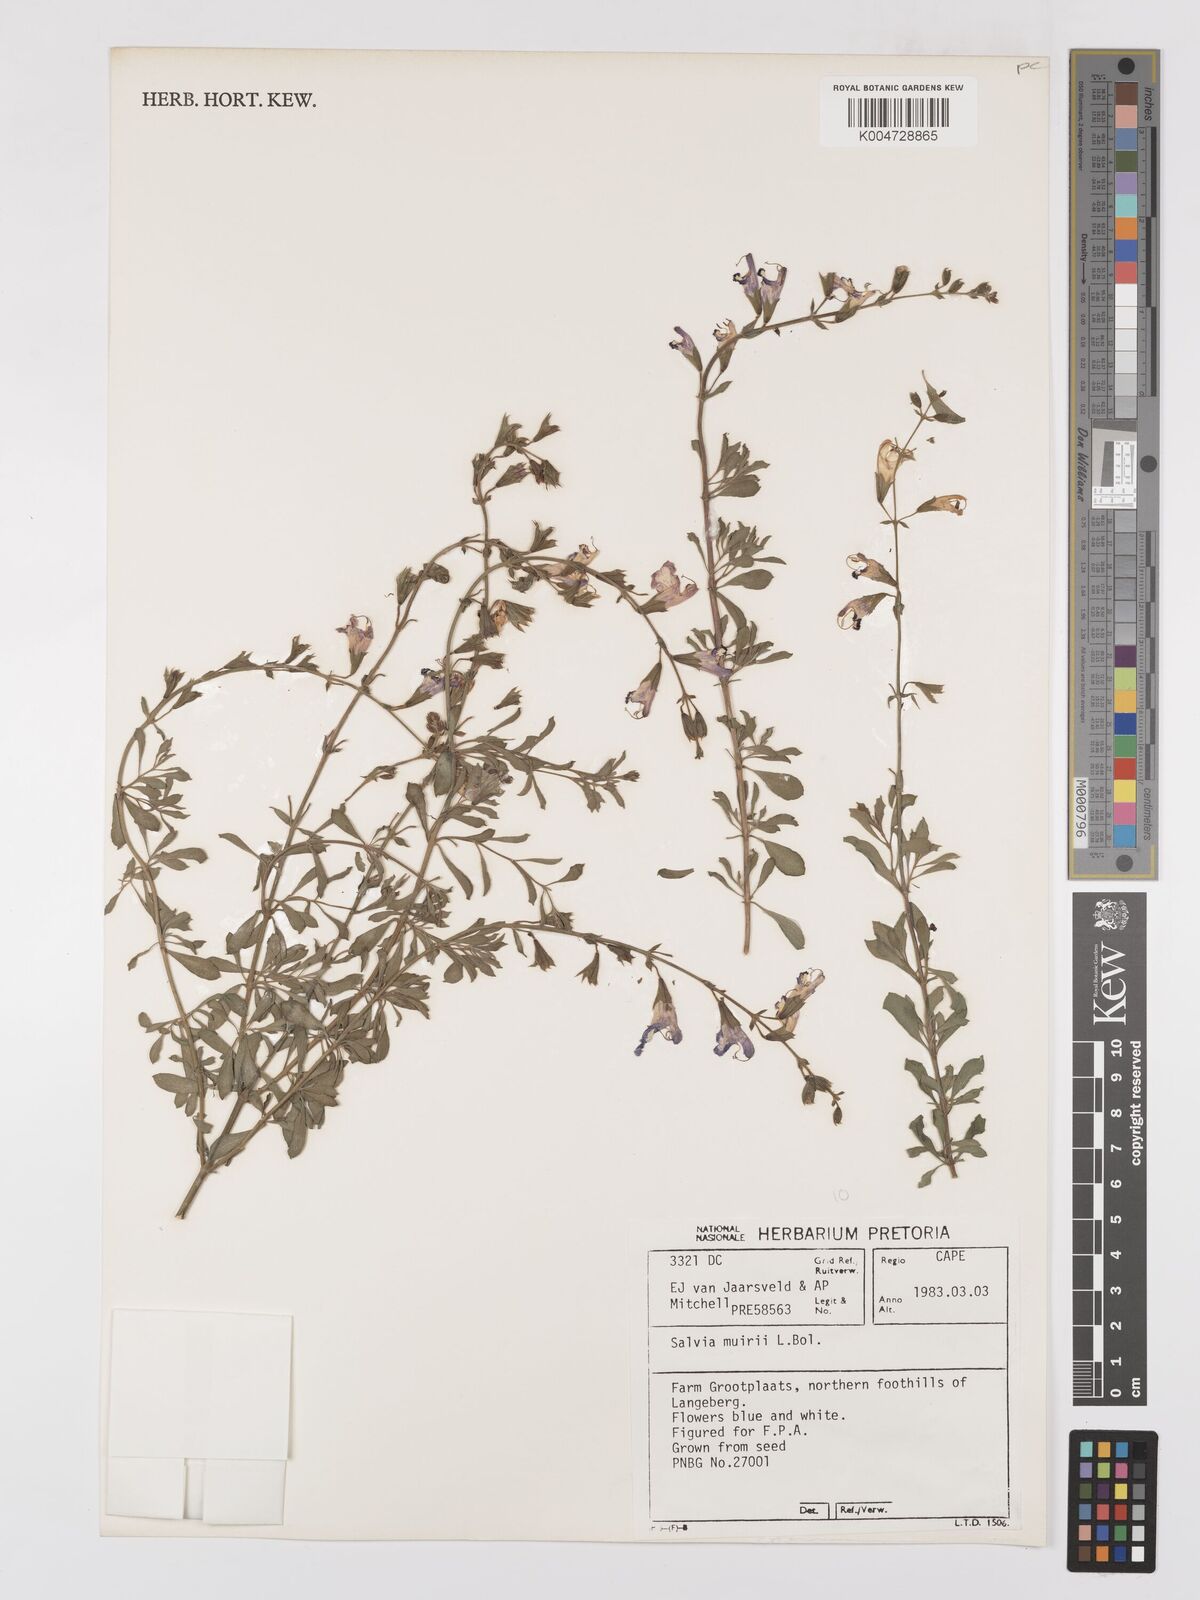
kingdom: Plantae
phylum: Tracheophyta
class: Magnoliopsida
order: Lamiales
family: Lamiaceae
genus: Salvia
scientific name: Salvia muirii
